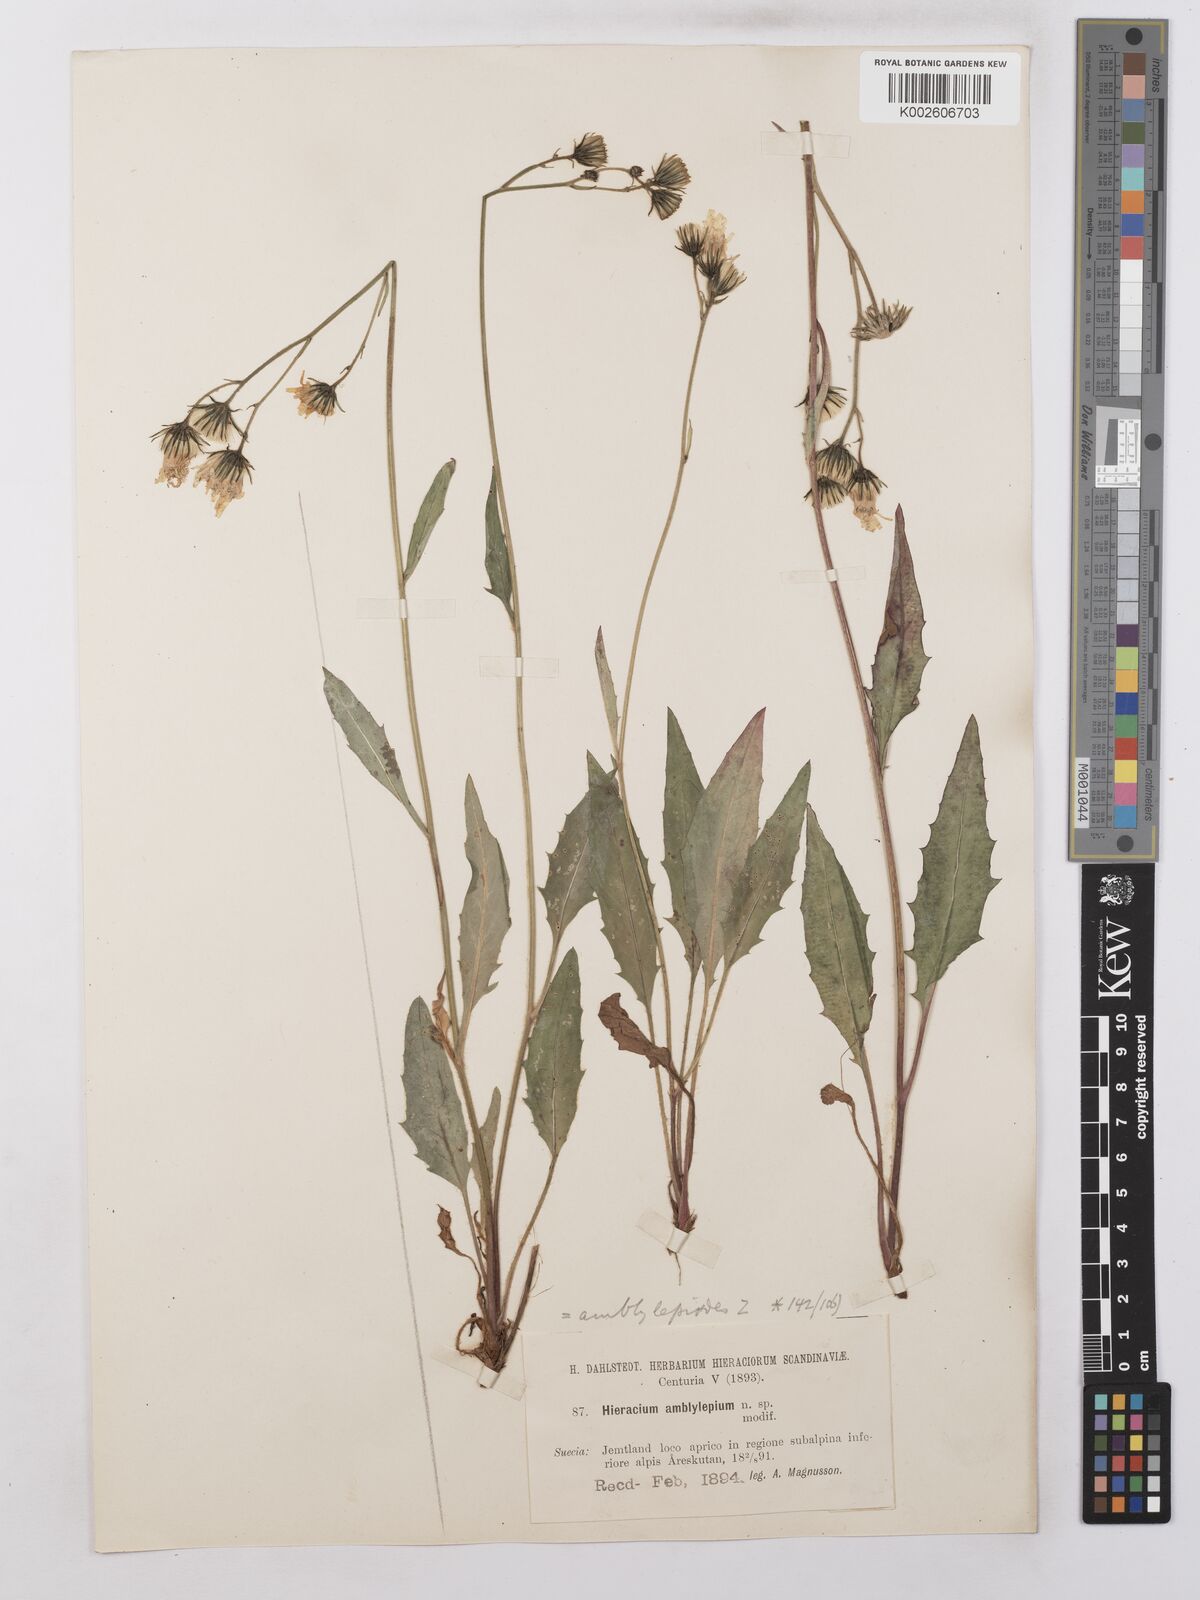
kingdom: Plantae
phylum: Tracheophyta
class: Magnoliopsida
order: Asterales
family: Asteraceae
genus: Hieracium
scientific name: Hieracium lachenalii
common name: Common hawkweed
